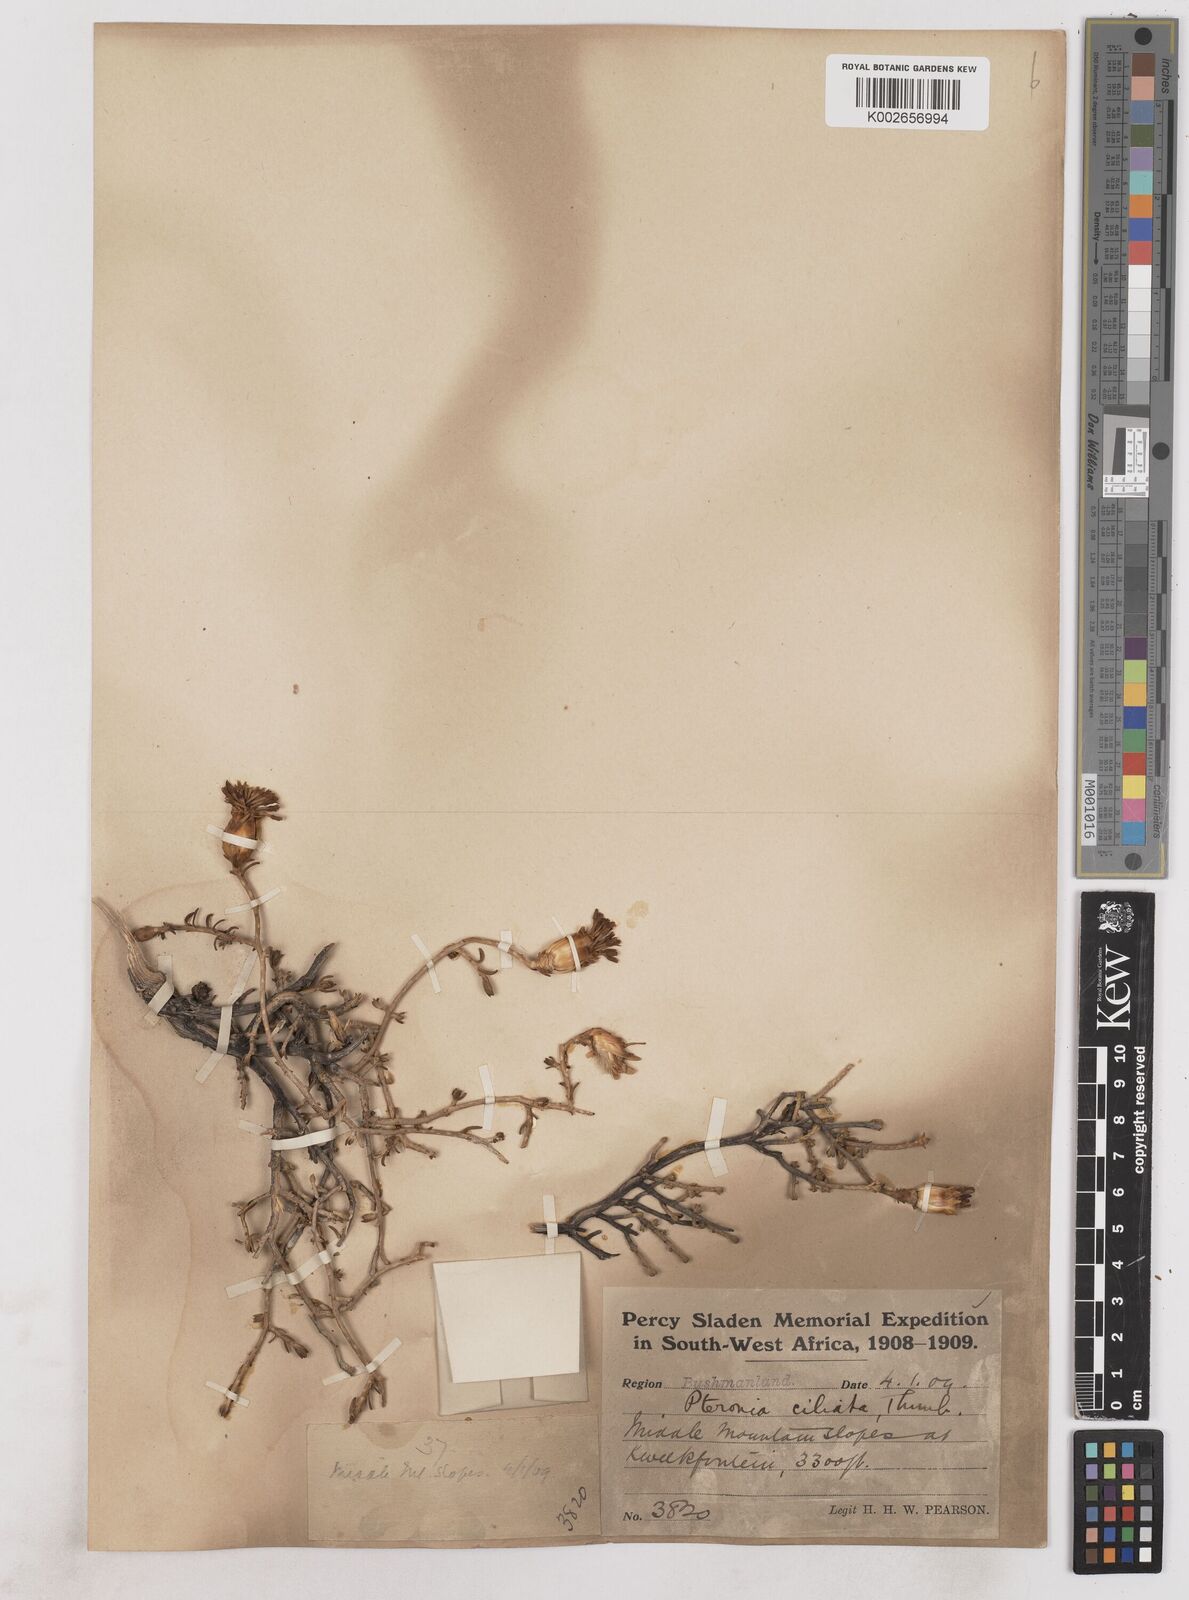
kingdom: Plantae
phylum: Tracheophyta
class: Magnoliopsida
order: Asterales
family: Asteraceae
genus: Pteronia
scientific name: Pteronia ciliata
